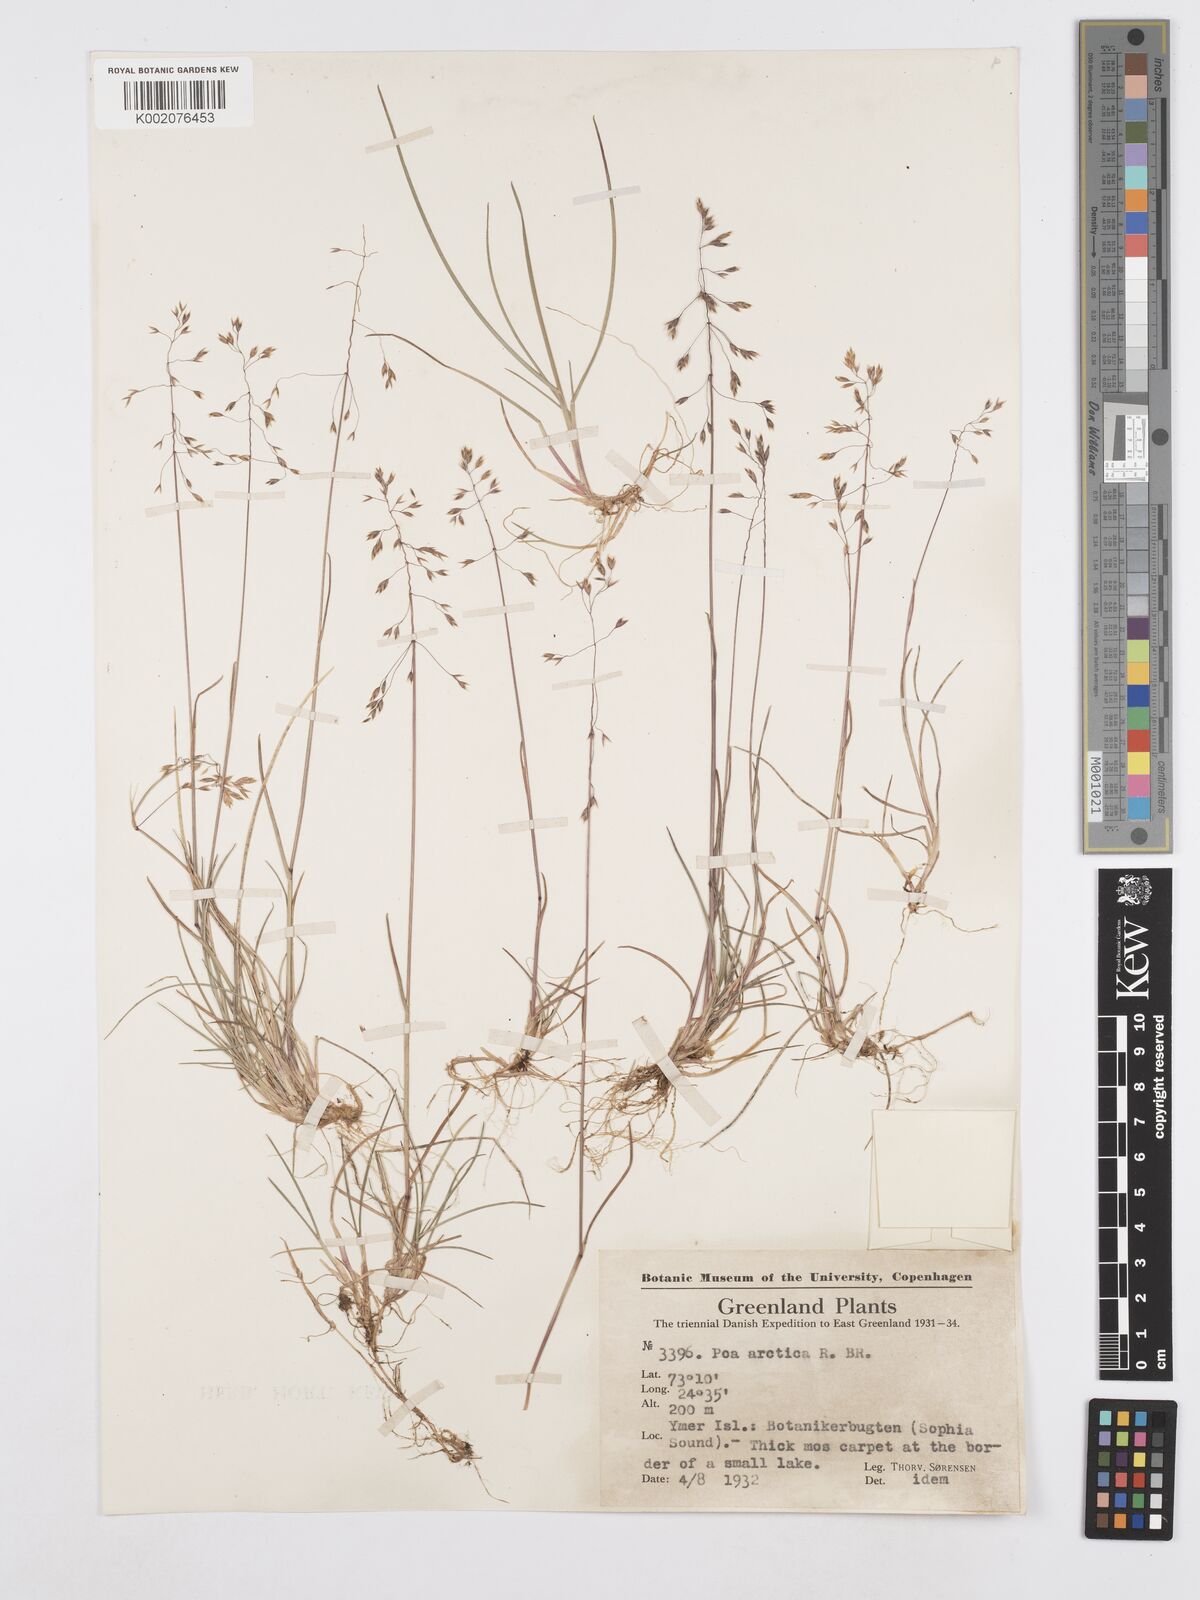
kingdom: Plantae
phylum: Tracheophyta
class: Liliopsida
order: Poales
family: Poaceae
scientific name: Poaceae
